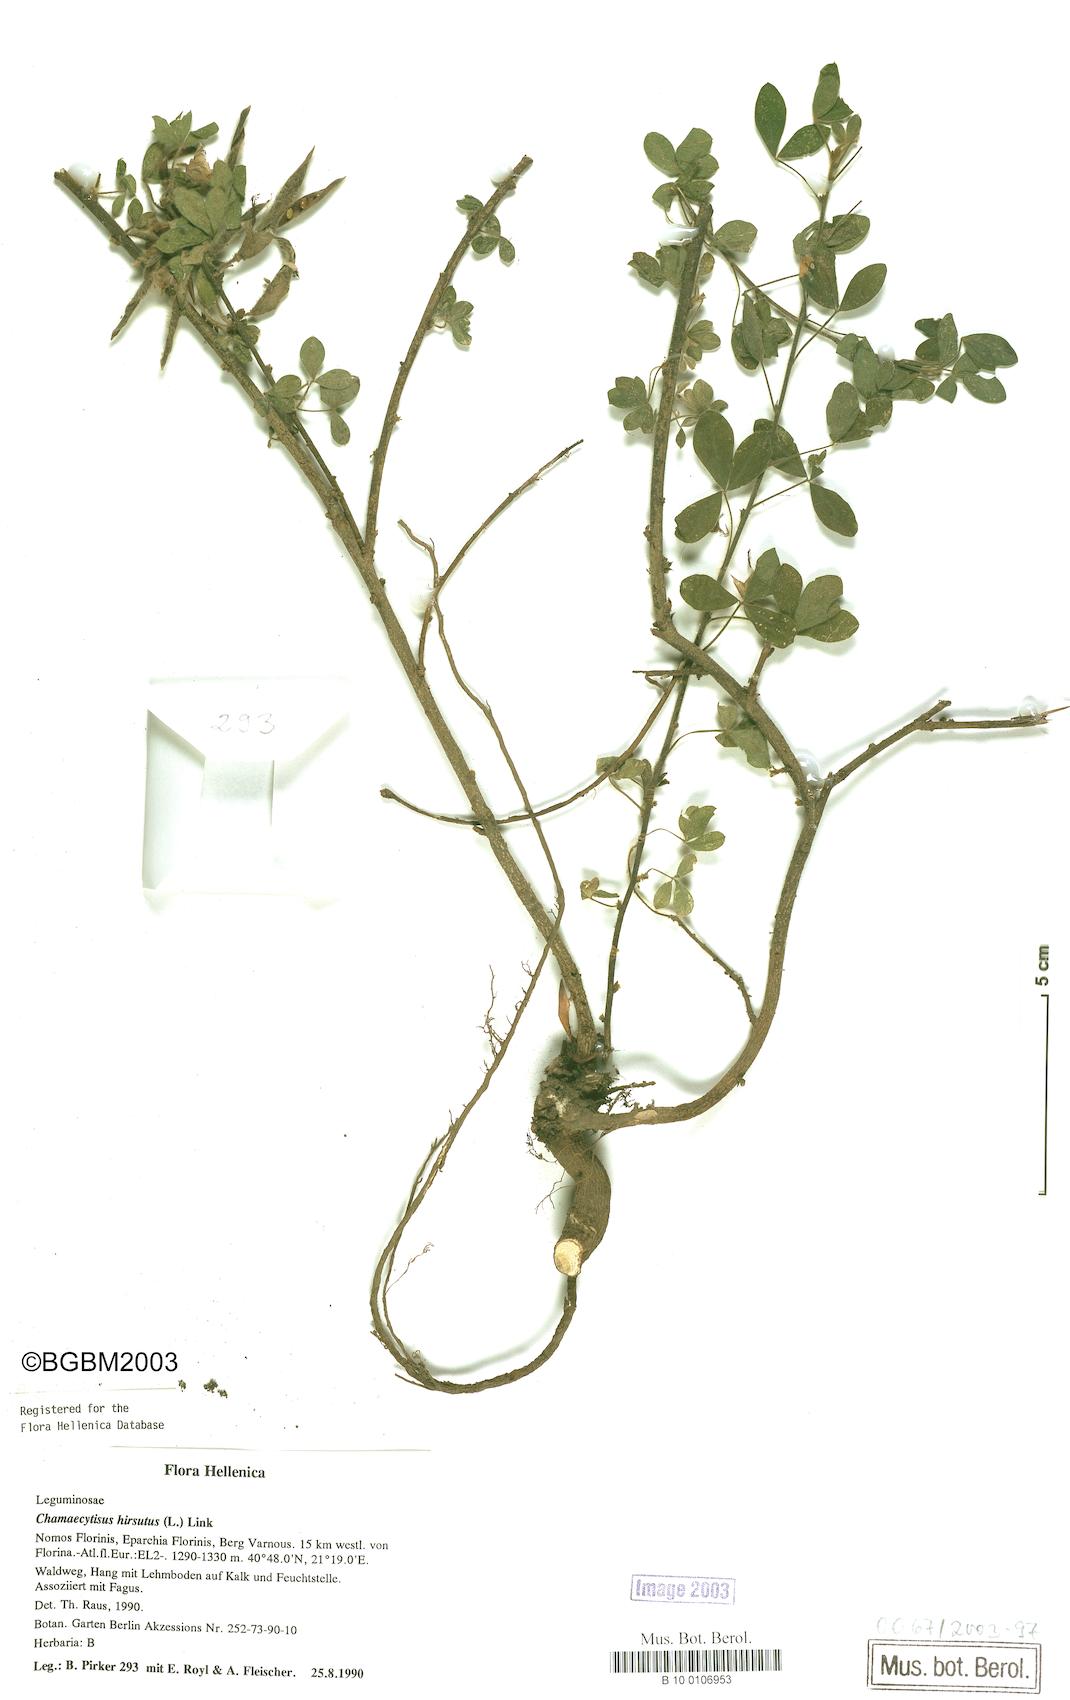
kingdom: Plantae
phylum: Tracheophyta
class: Magnoliopsida
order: Fabales
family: Fabaceae
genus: Chamaecytisus
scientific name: Chamaecytisus hirsutus
